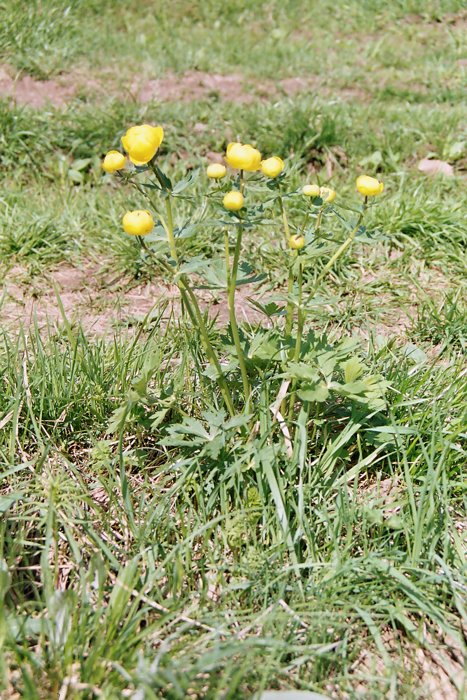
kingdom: Plantae
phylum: Tracheophyta
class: Magnoliopsida
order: Ranunculales
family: Ranunculaceae
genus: Trollius
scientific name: Trollius europaeus
